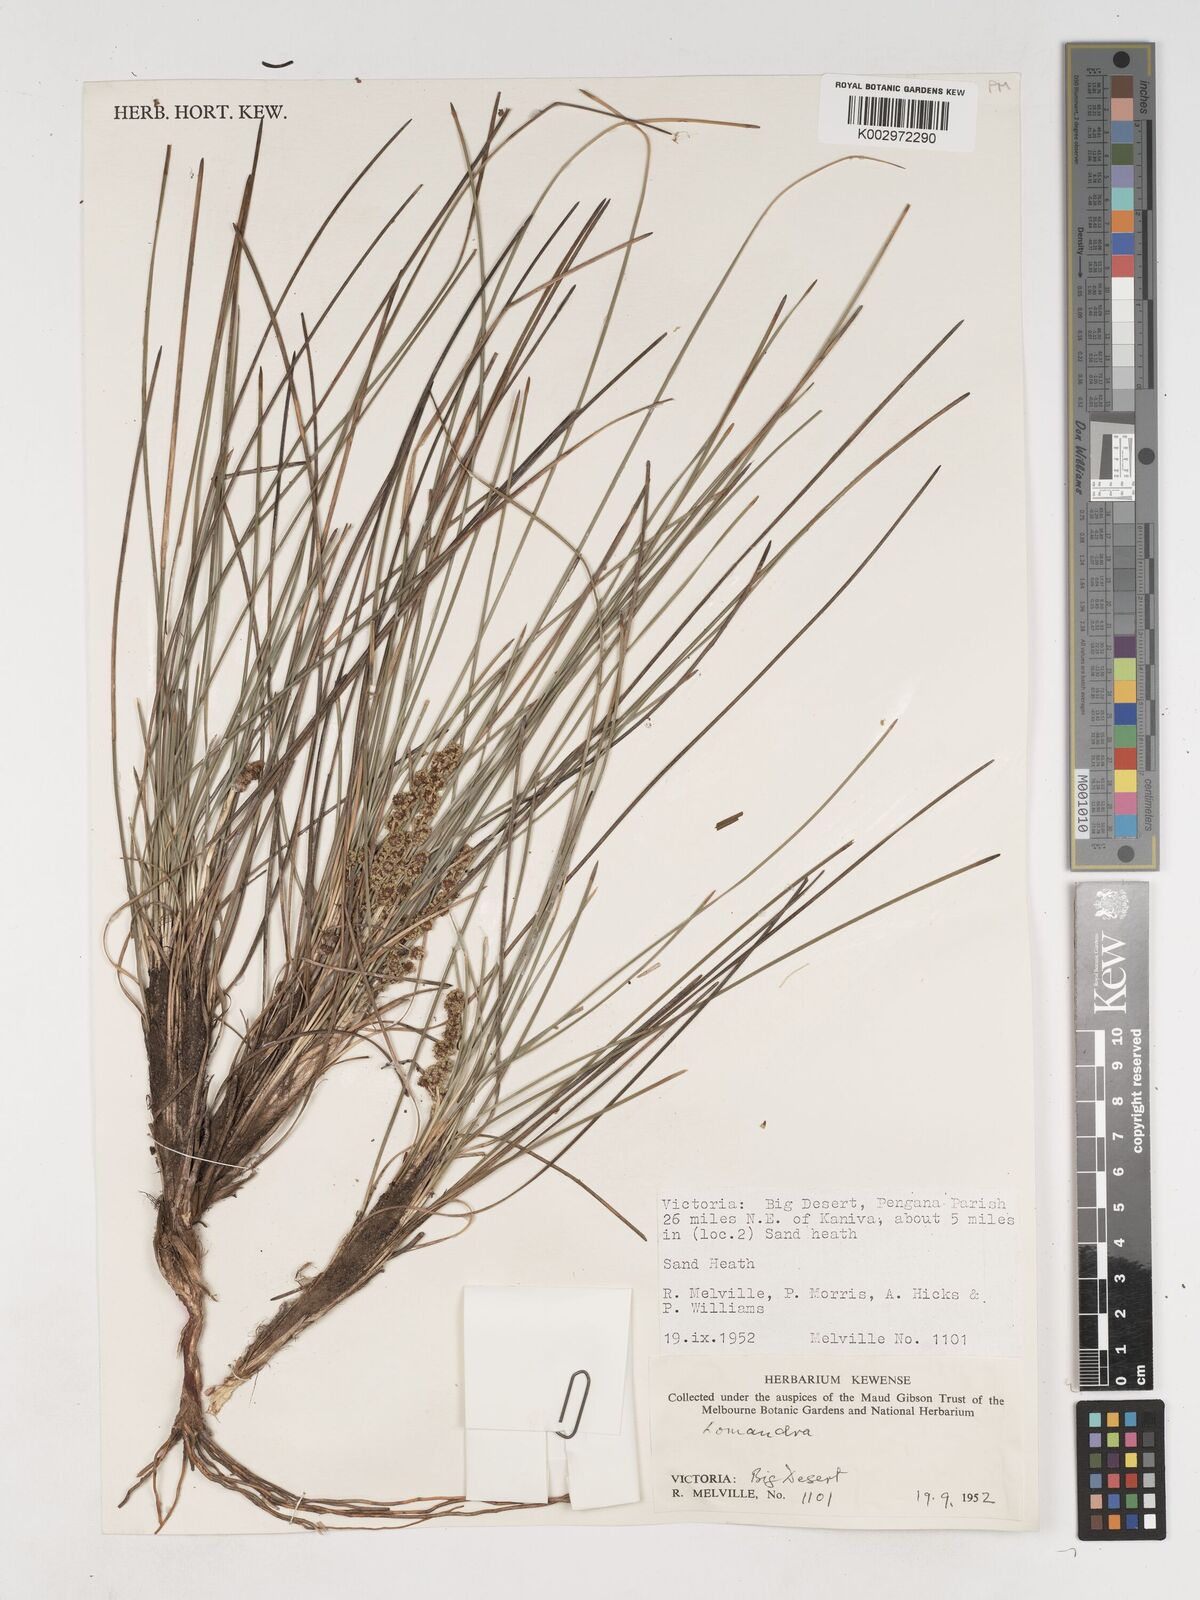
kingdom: Plantae
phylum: Tracheophyta
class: Liliopsida
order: Asparagales
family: Asparagaceae
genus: Lomandra
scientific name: Lomandra
